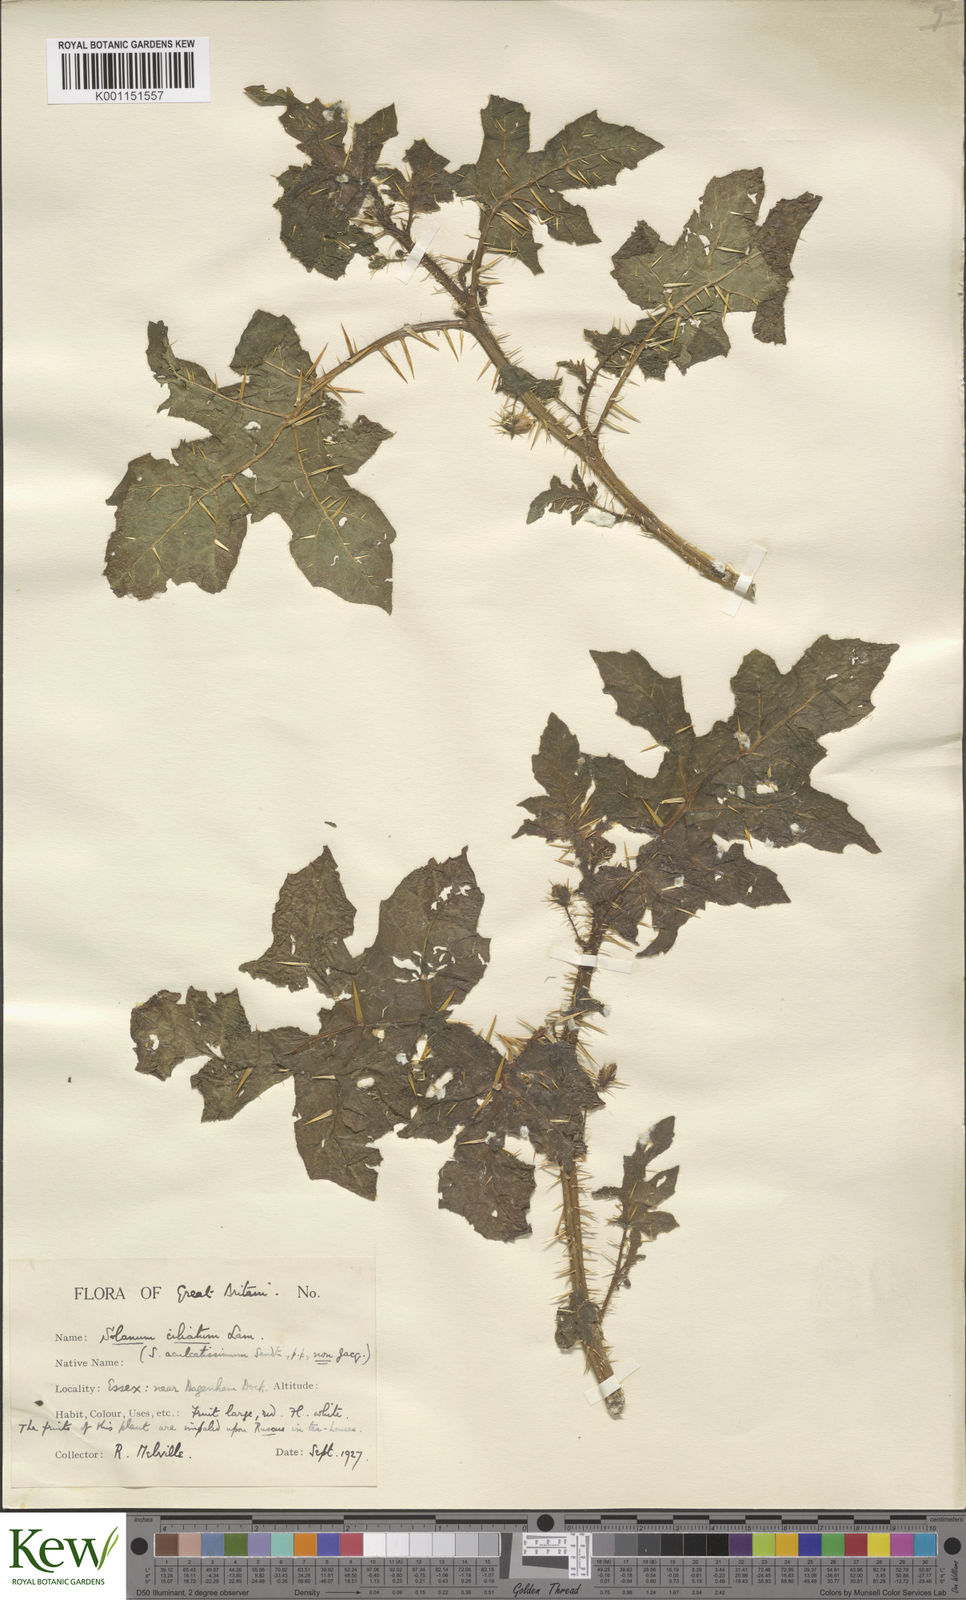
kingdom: Plantae
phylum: Tracheophyta
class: Magnoliopsida
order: Solanales
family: Solanaceae
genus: Solanum
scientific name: Solanum capsicoides
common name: Cockroach berry
